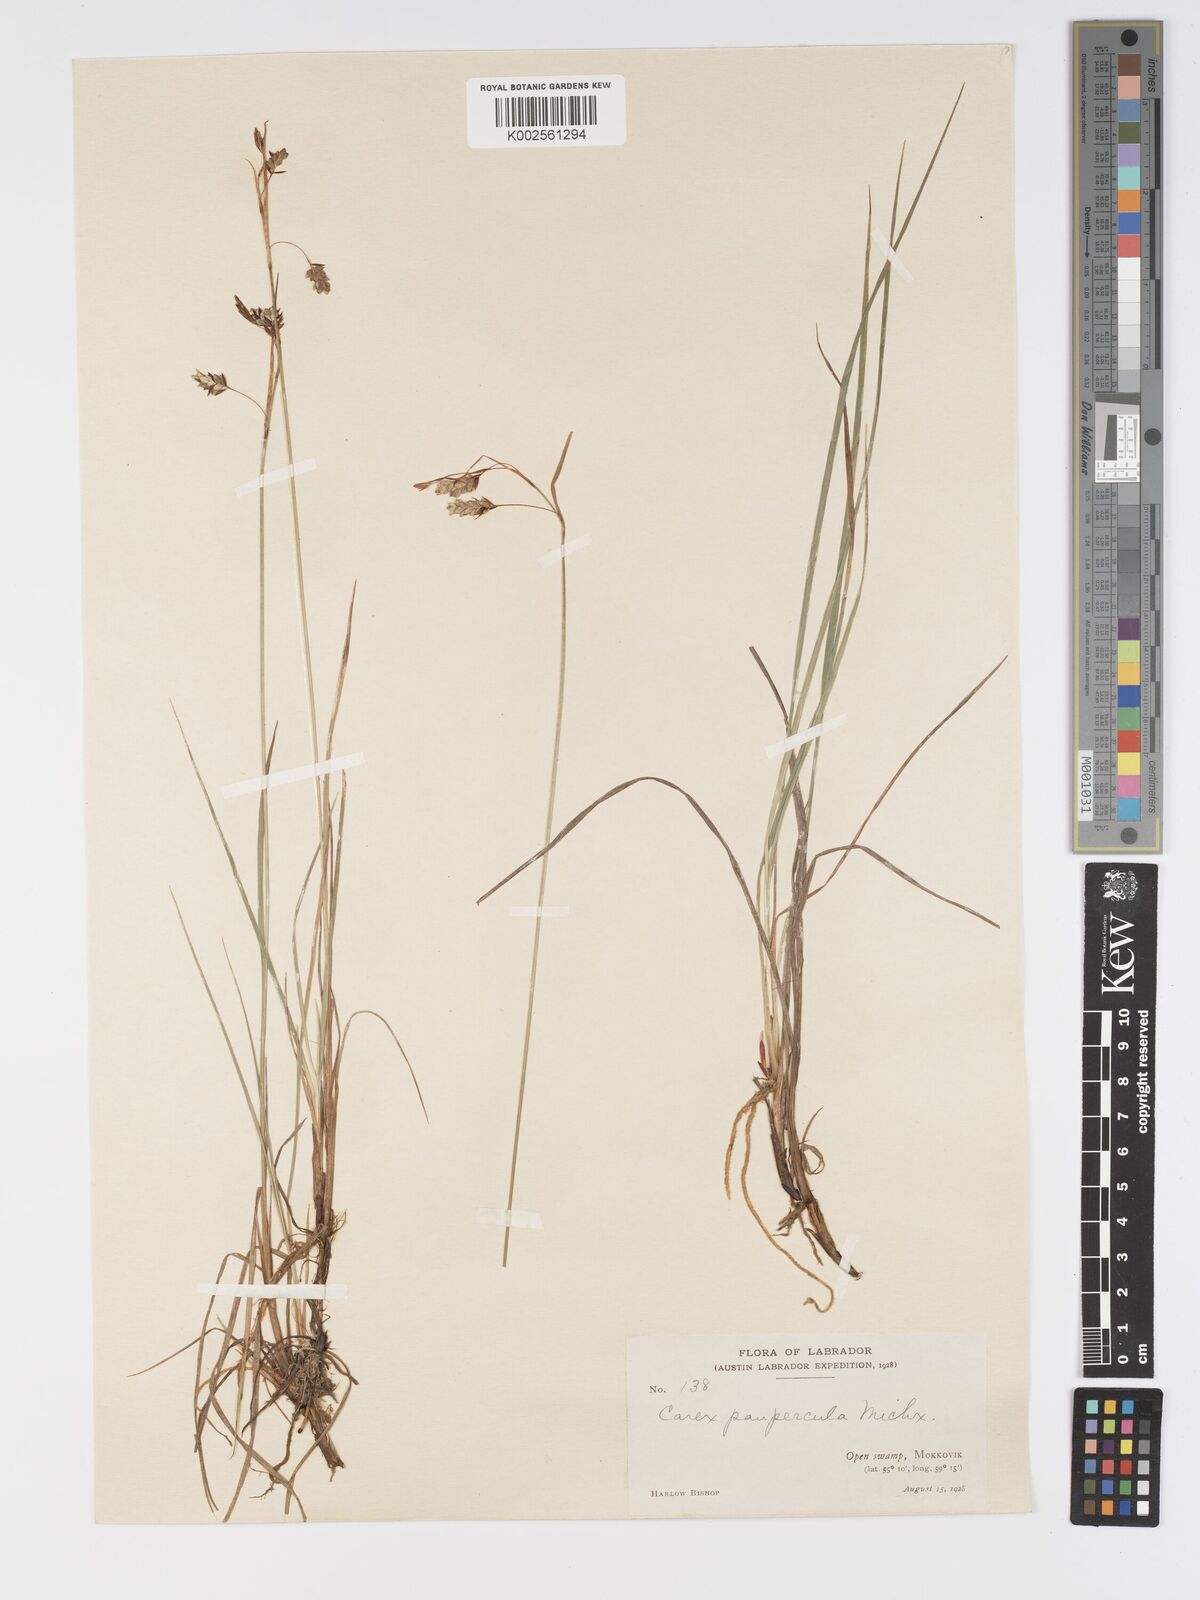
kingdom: Plantae
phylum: Tracheophyta
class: Liliopsida
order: Poales
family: Cyperaceae
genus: Carex
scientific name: Carex magellanica
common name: Bog sedge
